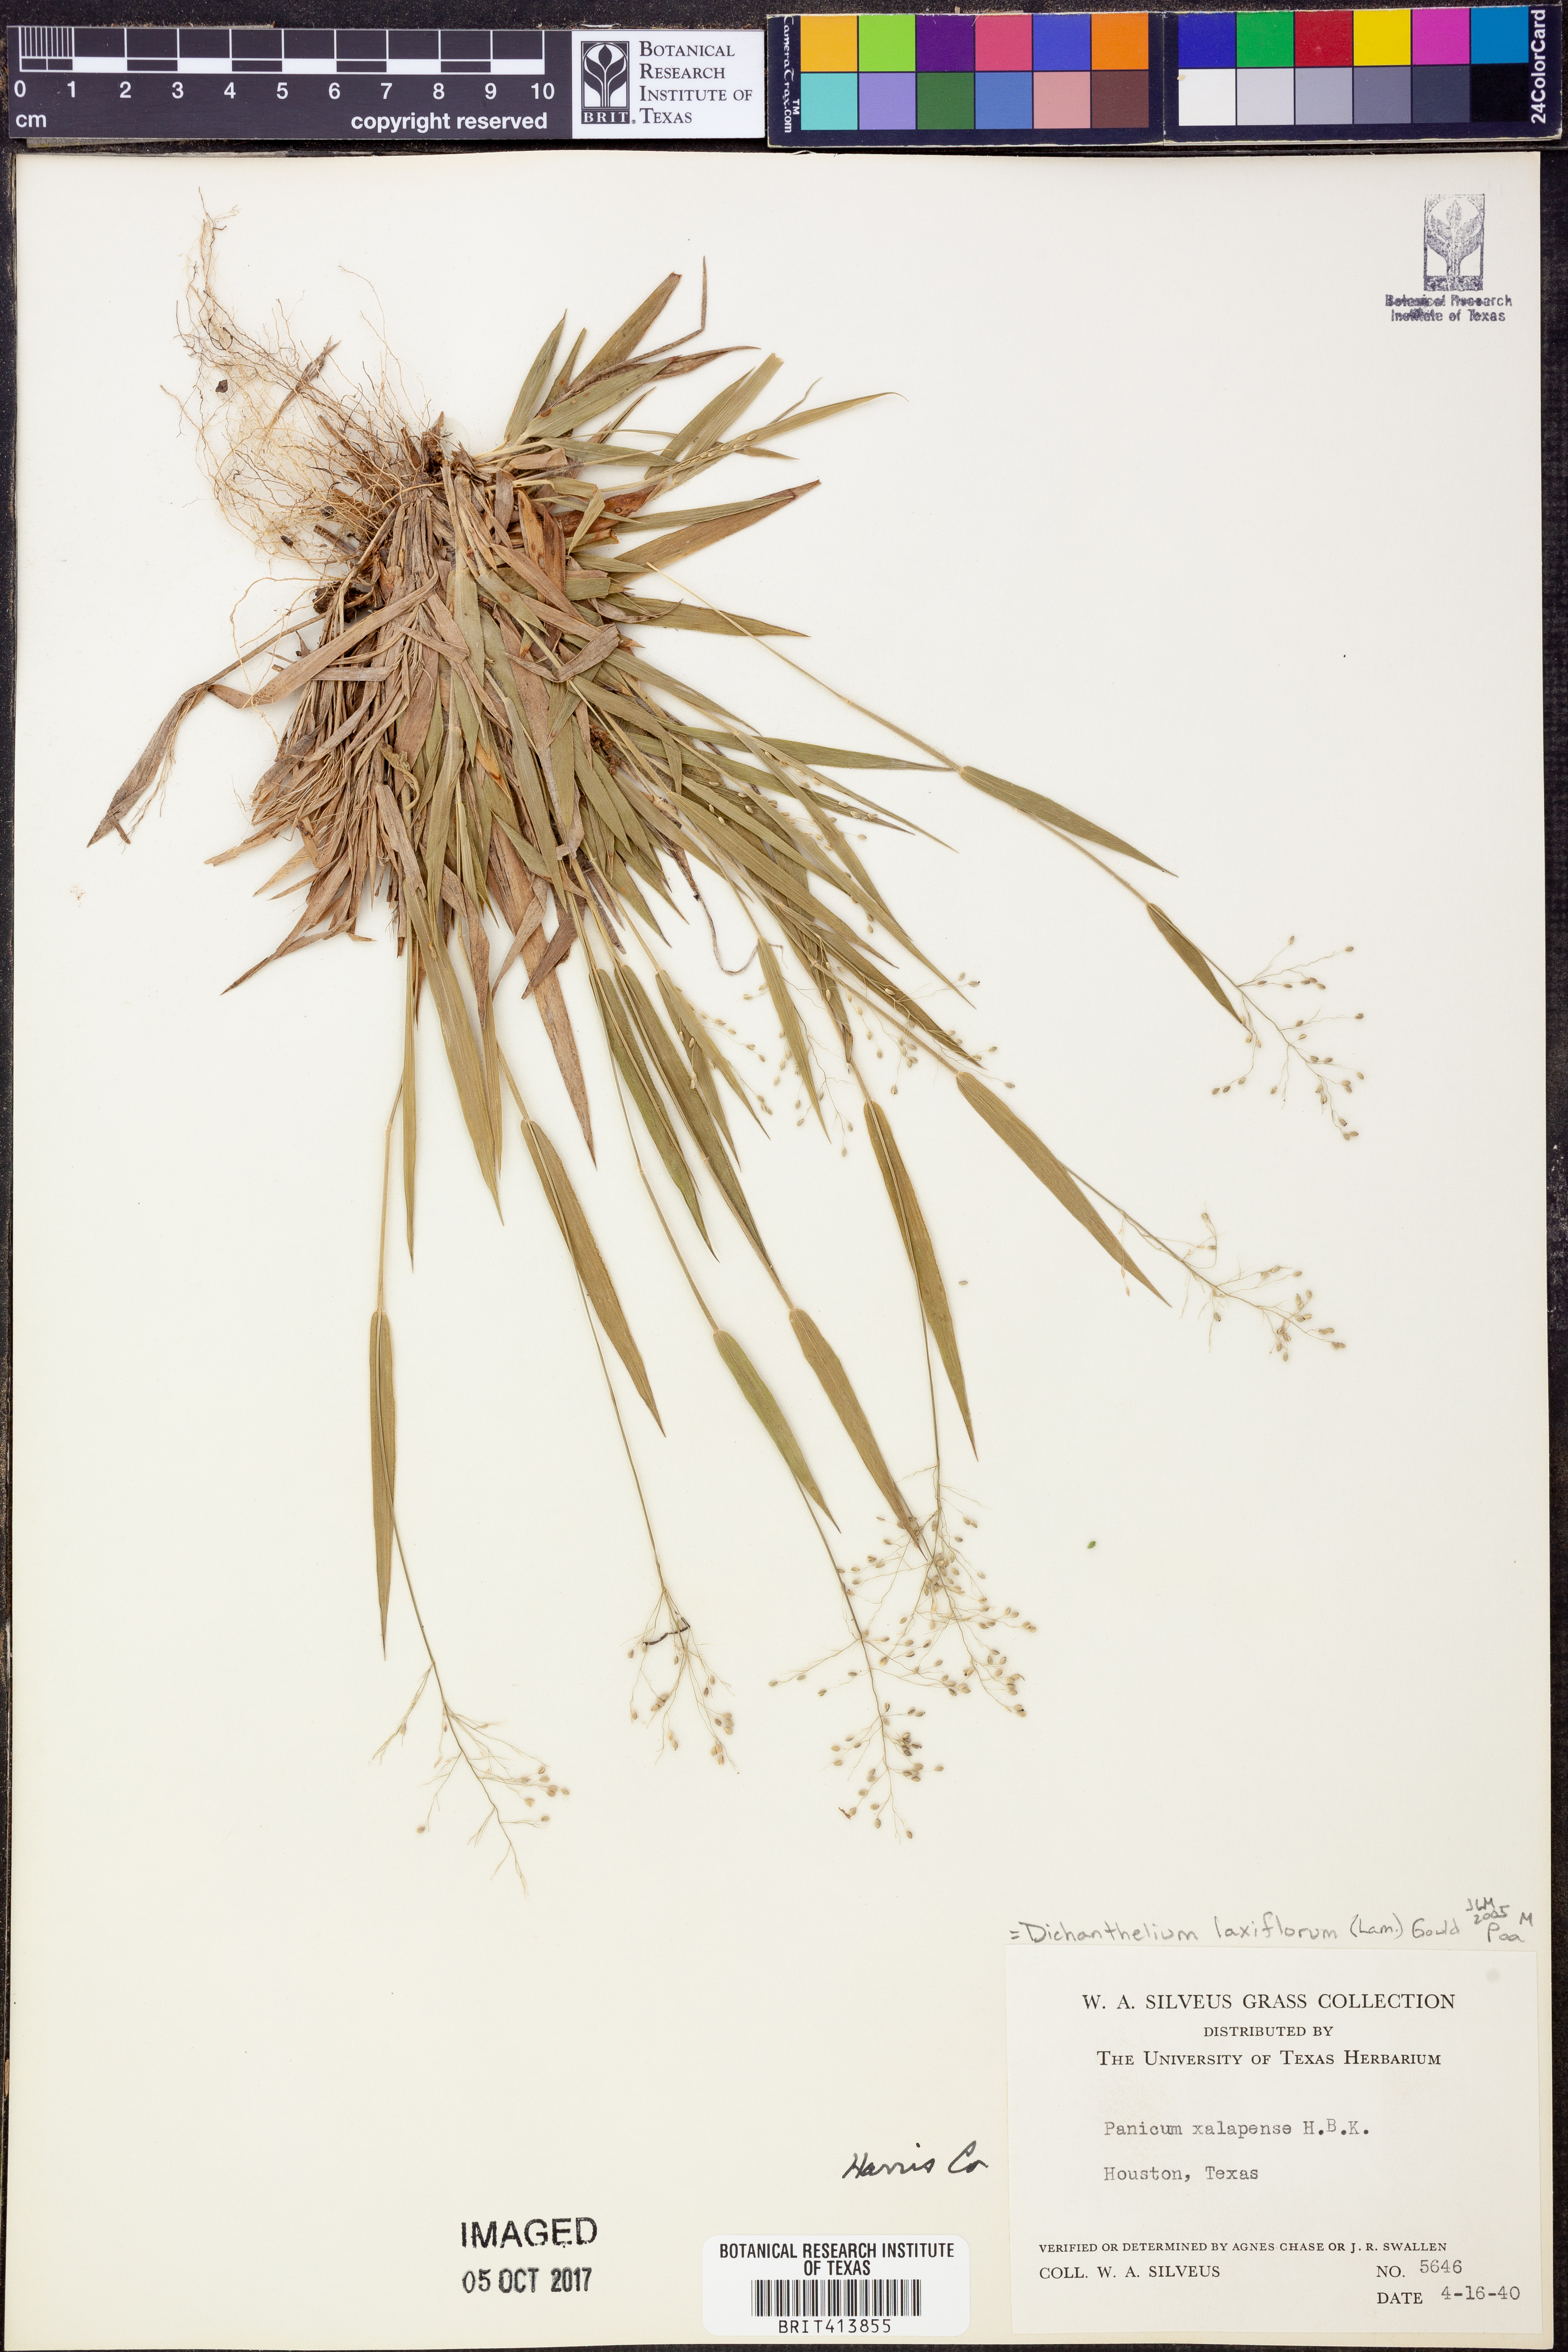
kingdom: Plantae
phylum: Tracheophyta
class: Liliopsida
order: Poales
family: Poaceae
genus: Dichanthelium
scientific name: Dichanthelium laxiflorum
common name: Soft-tuft panic grass
